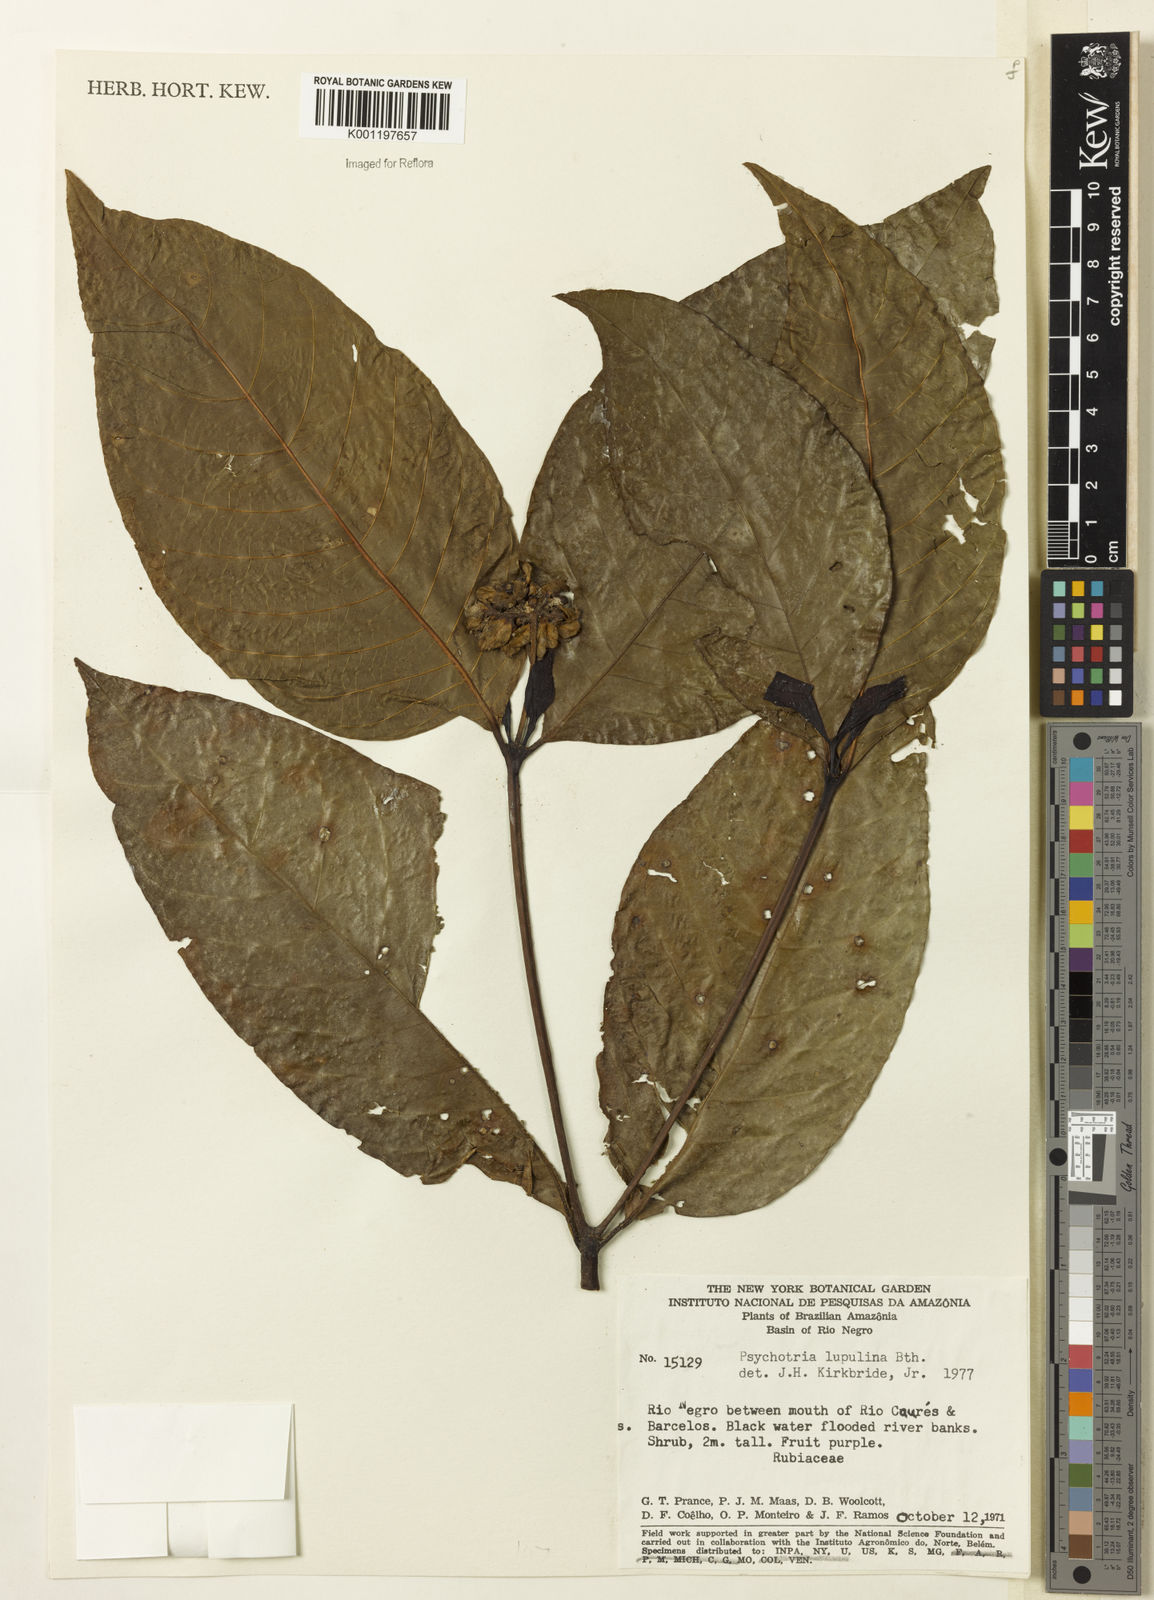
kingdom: Plantae
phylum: Tracheophyta
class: Magnoliopsida
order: Gentianales
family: Rubiaceae
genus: Palicourea
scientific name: Palicourea justiciifolia
